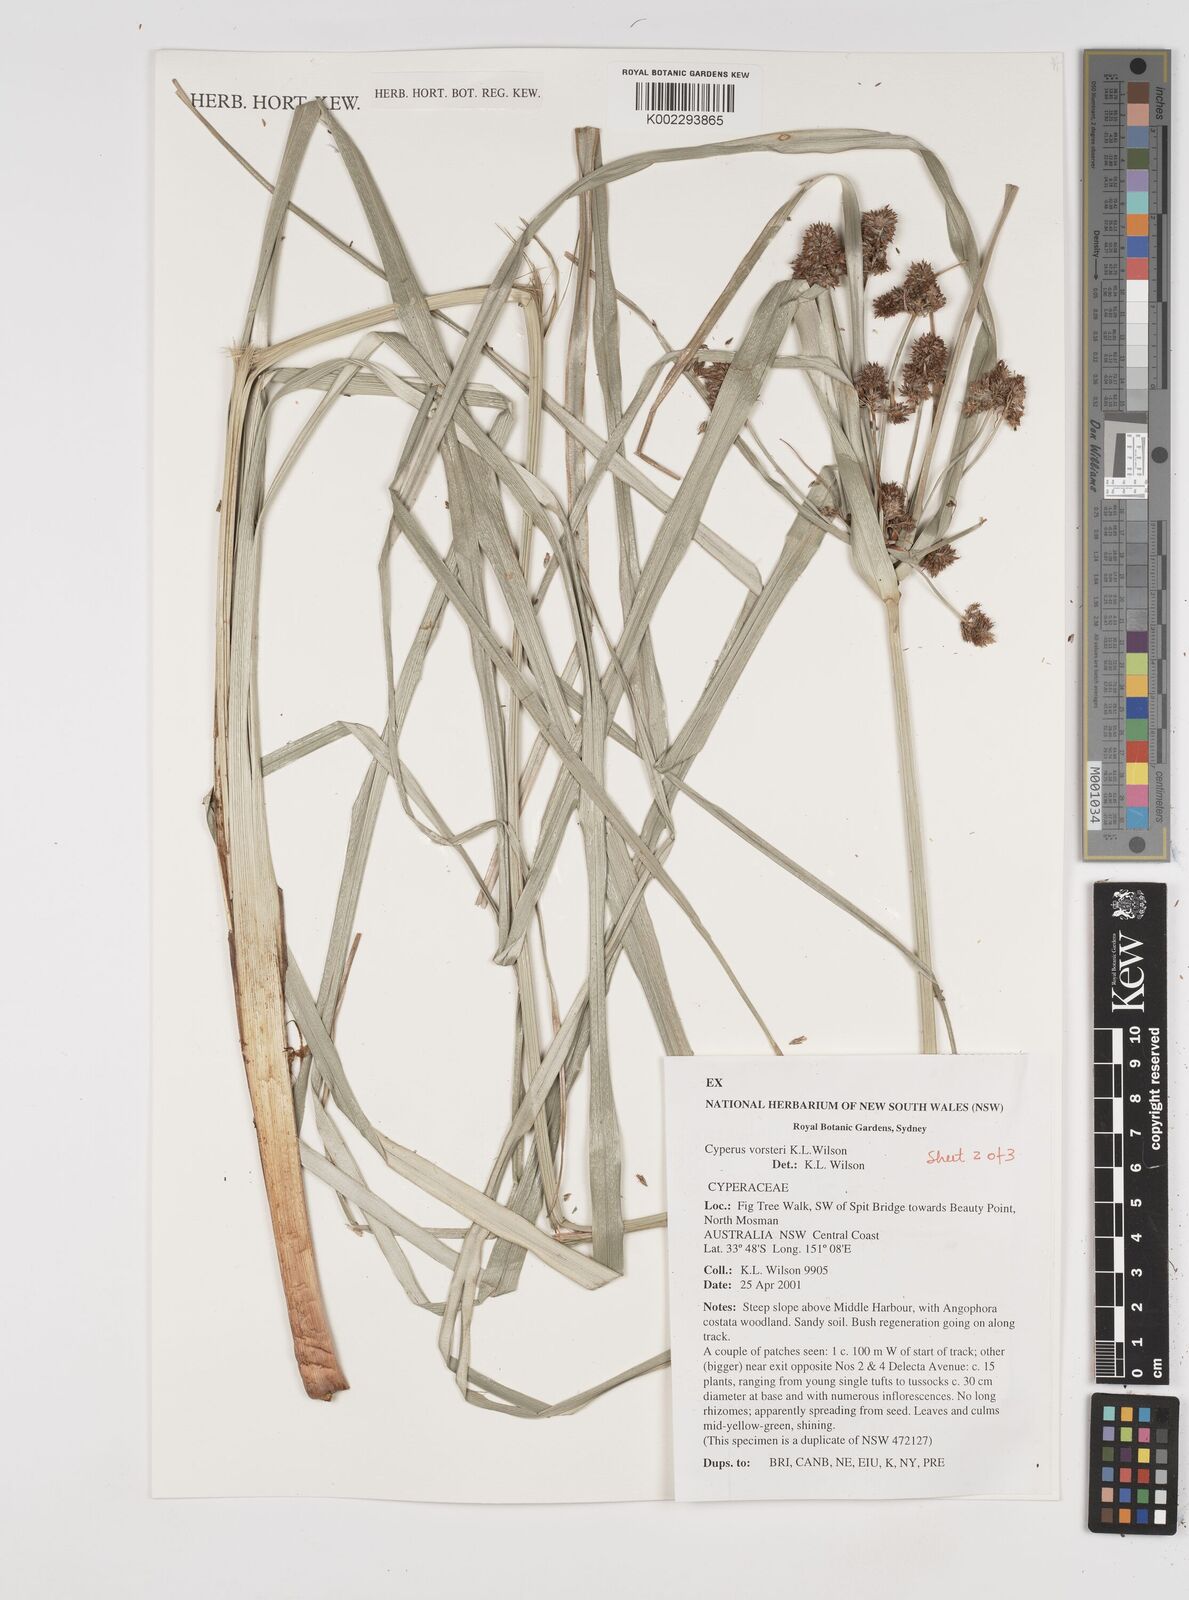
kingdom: Plantae
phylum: Tracheophyta
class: Liliopsida
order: Poales
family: Cyperaceae
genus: Cyperus
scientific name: Cyperus vorsteri
